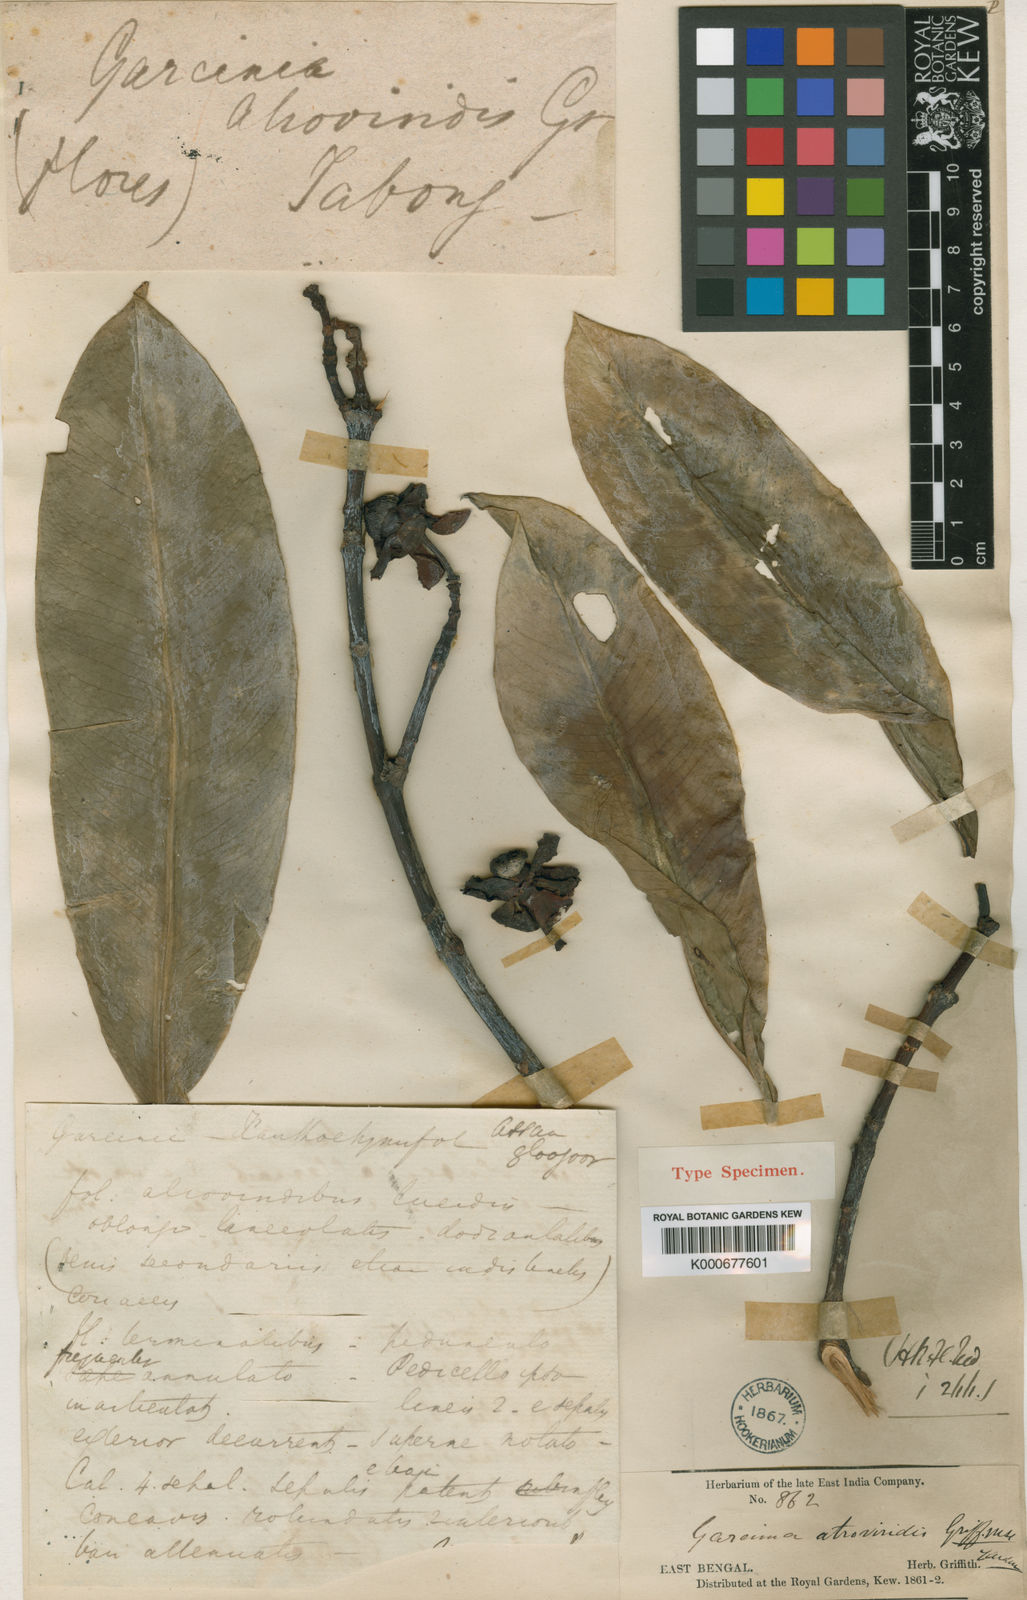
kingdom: Plantae
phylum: Tracheophyta
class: Magnoliopsida
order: Malpighiales
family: Clusiaceae
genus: Garcinia
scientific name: Garcinia atroviridis
